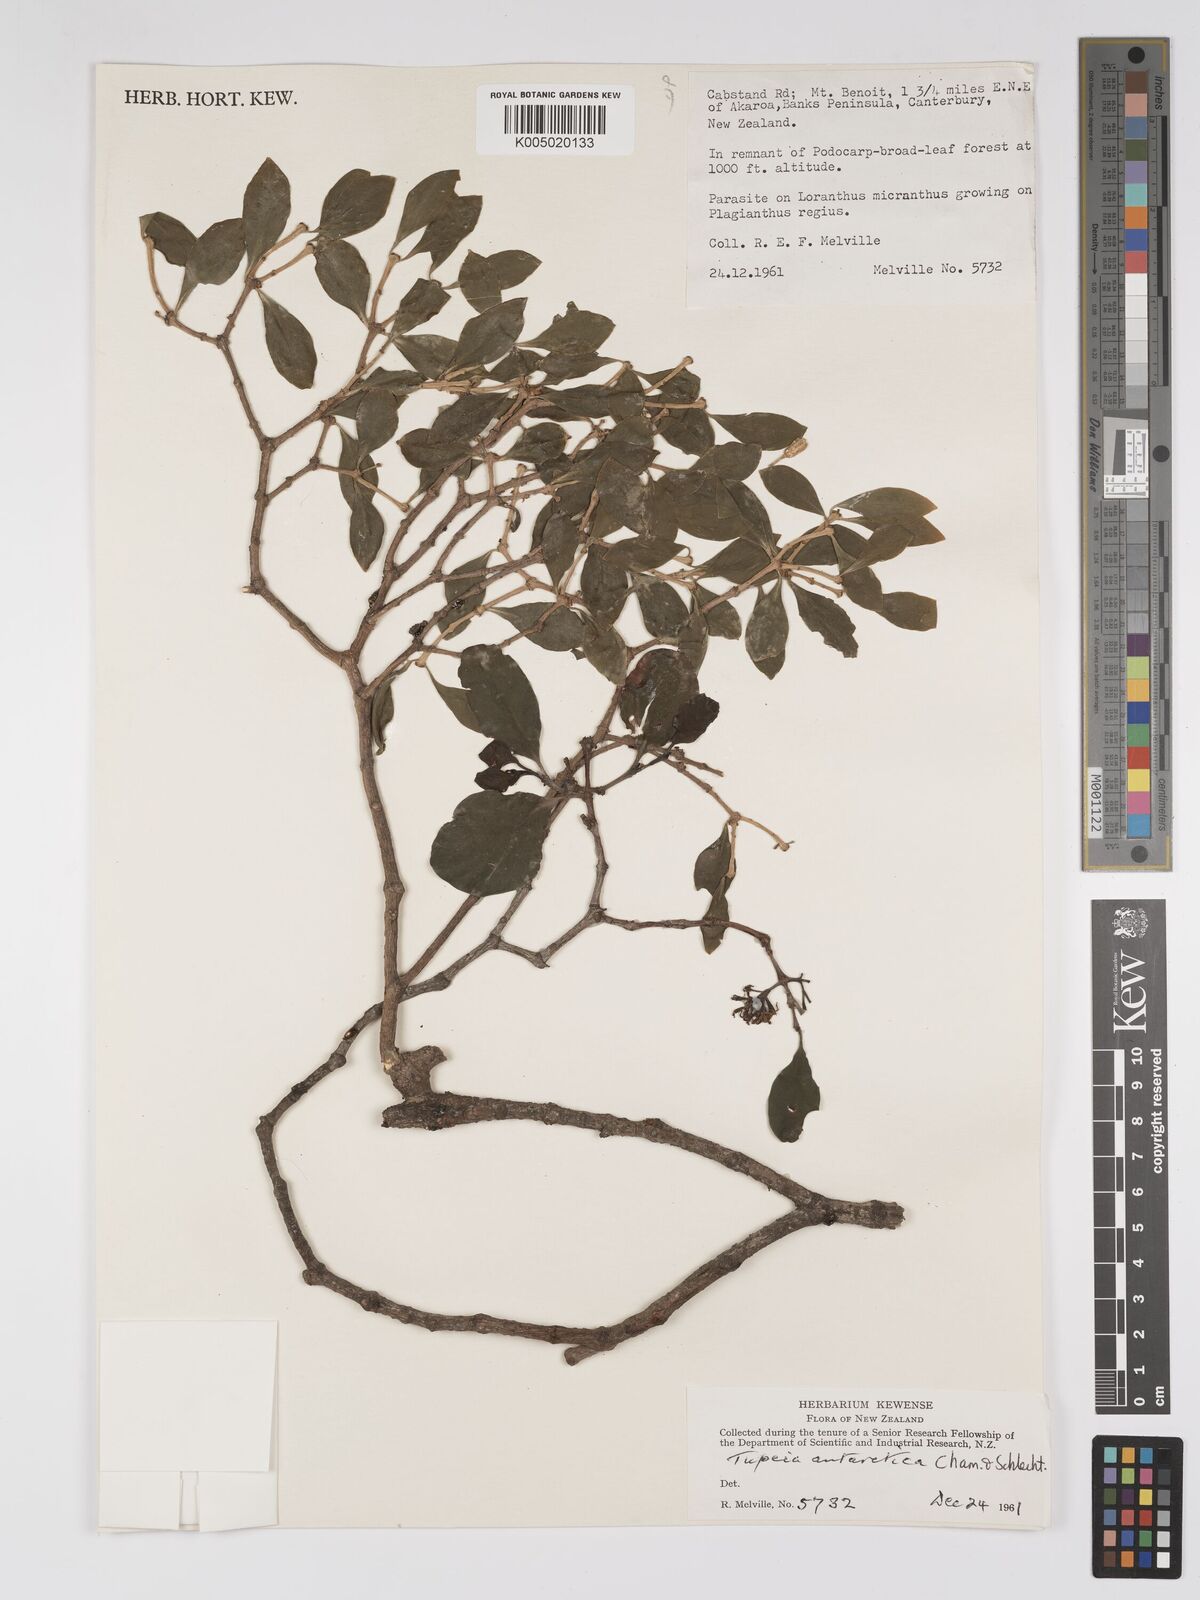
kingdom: Plantae
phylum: Tracheophyta
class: Magnoliopsida
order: Santalales
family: Loranthaceae
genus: Tupeia
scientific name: Tupeia antarctica
